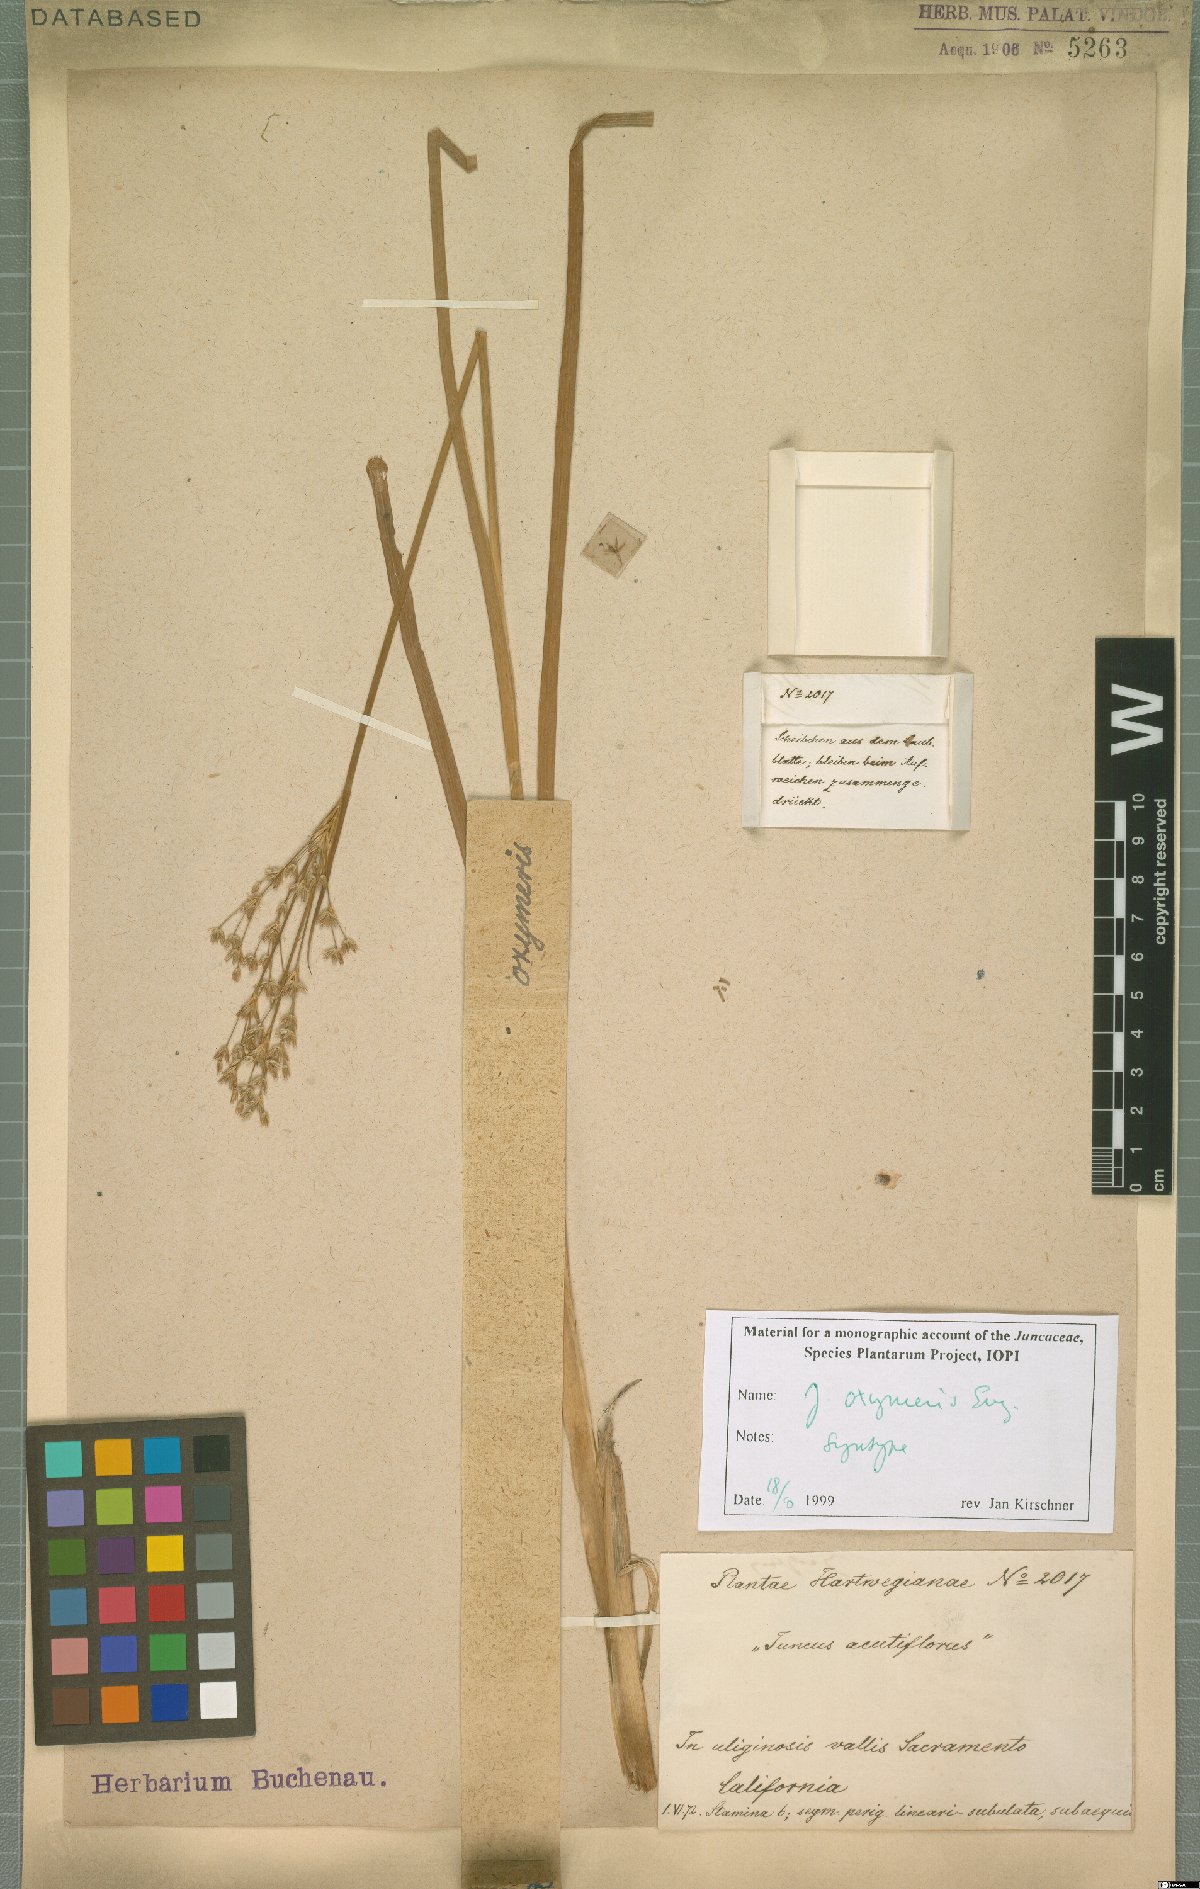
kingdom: Plantae
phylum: Tracheophyta
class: Liliopsida
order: Poales
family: Juncaceae
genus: Juncus
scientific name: Juncus oxymeris
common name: Pointed rush
